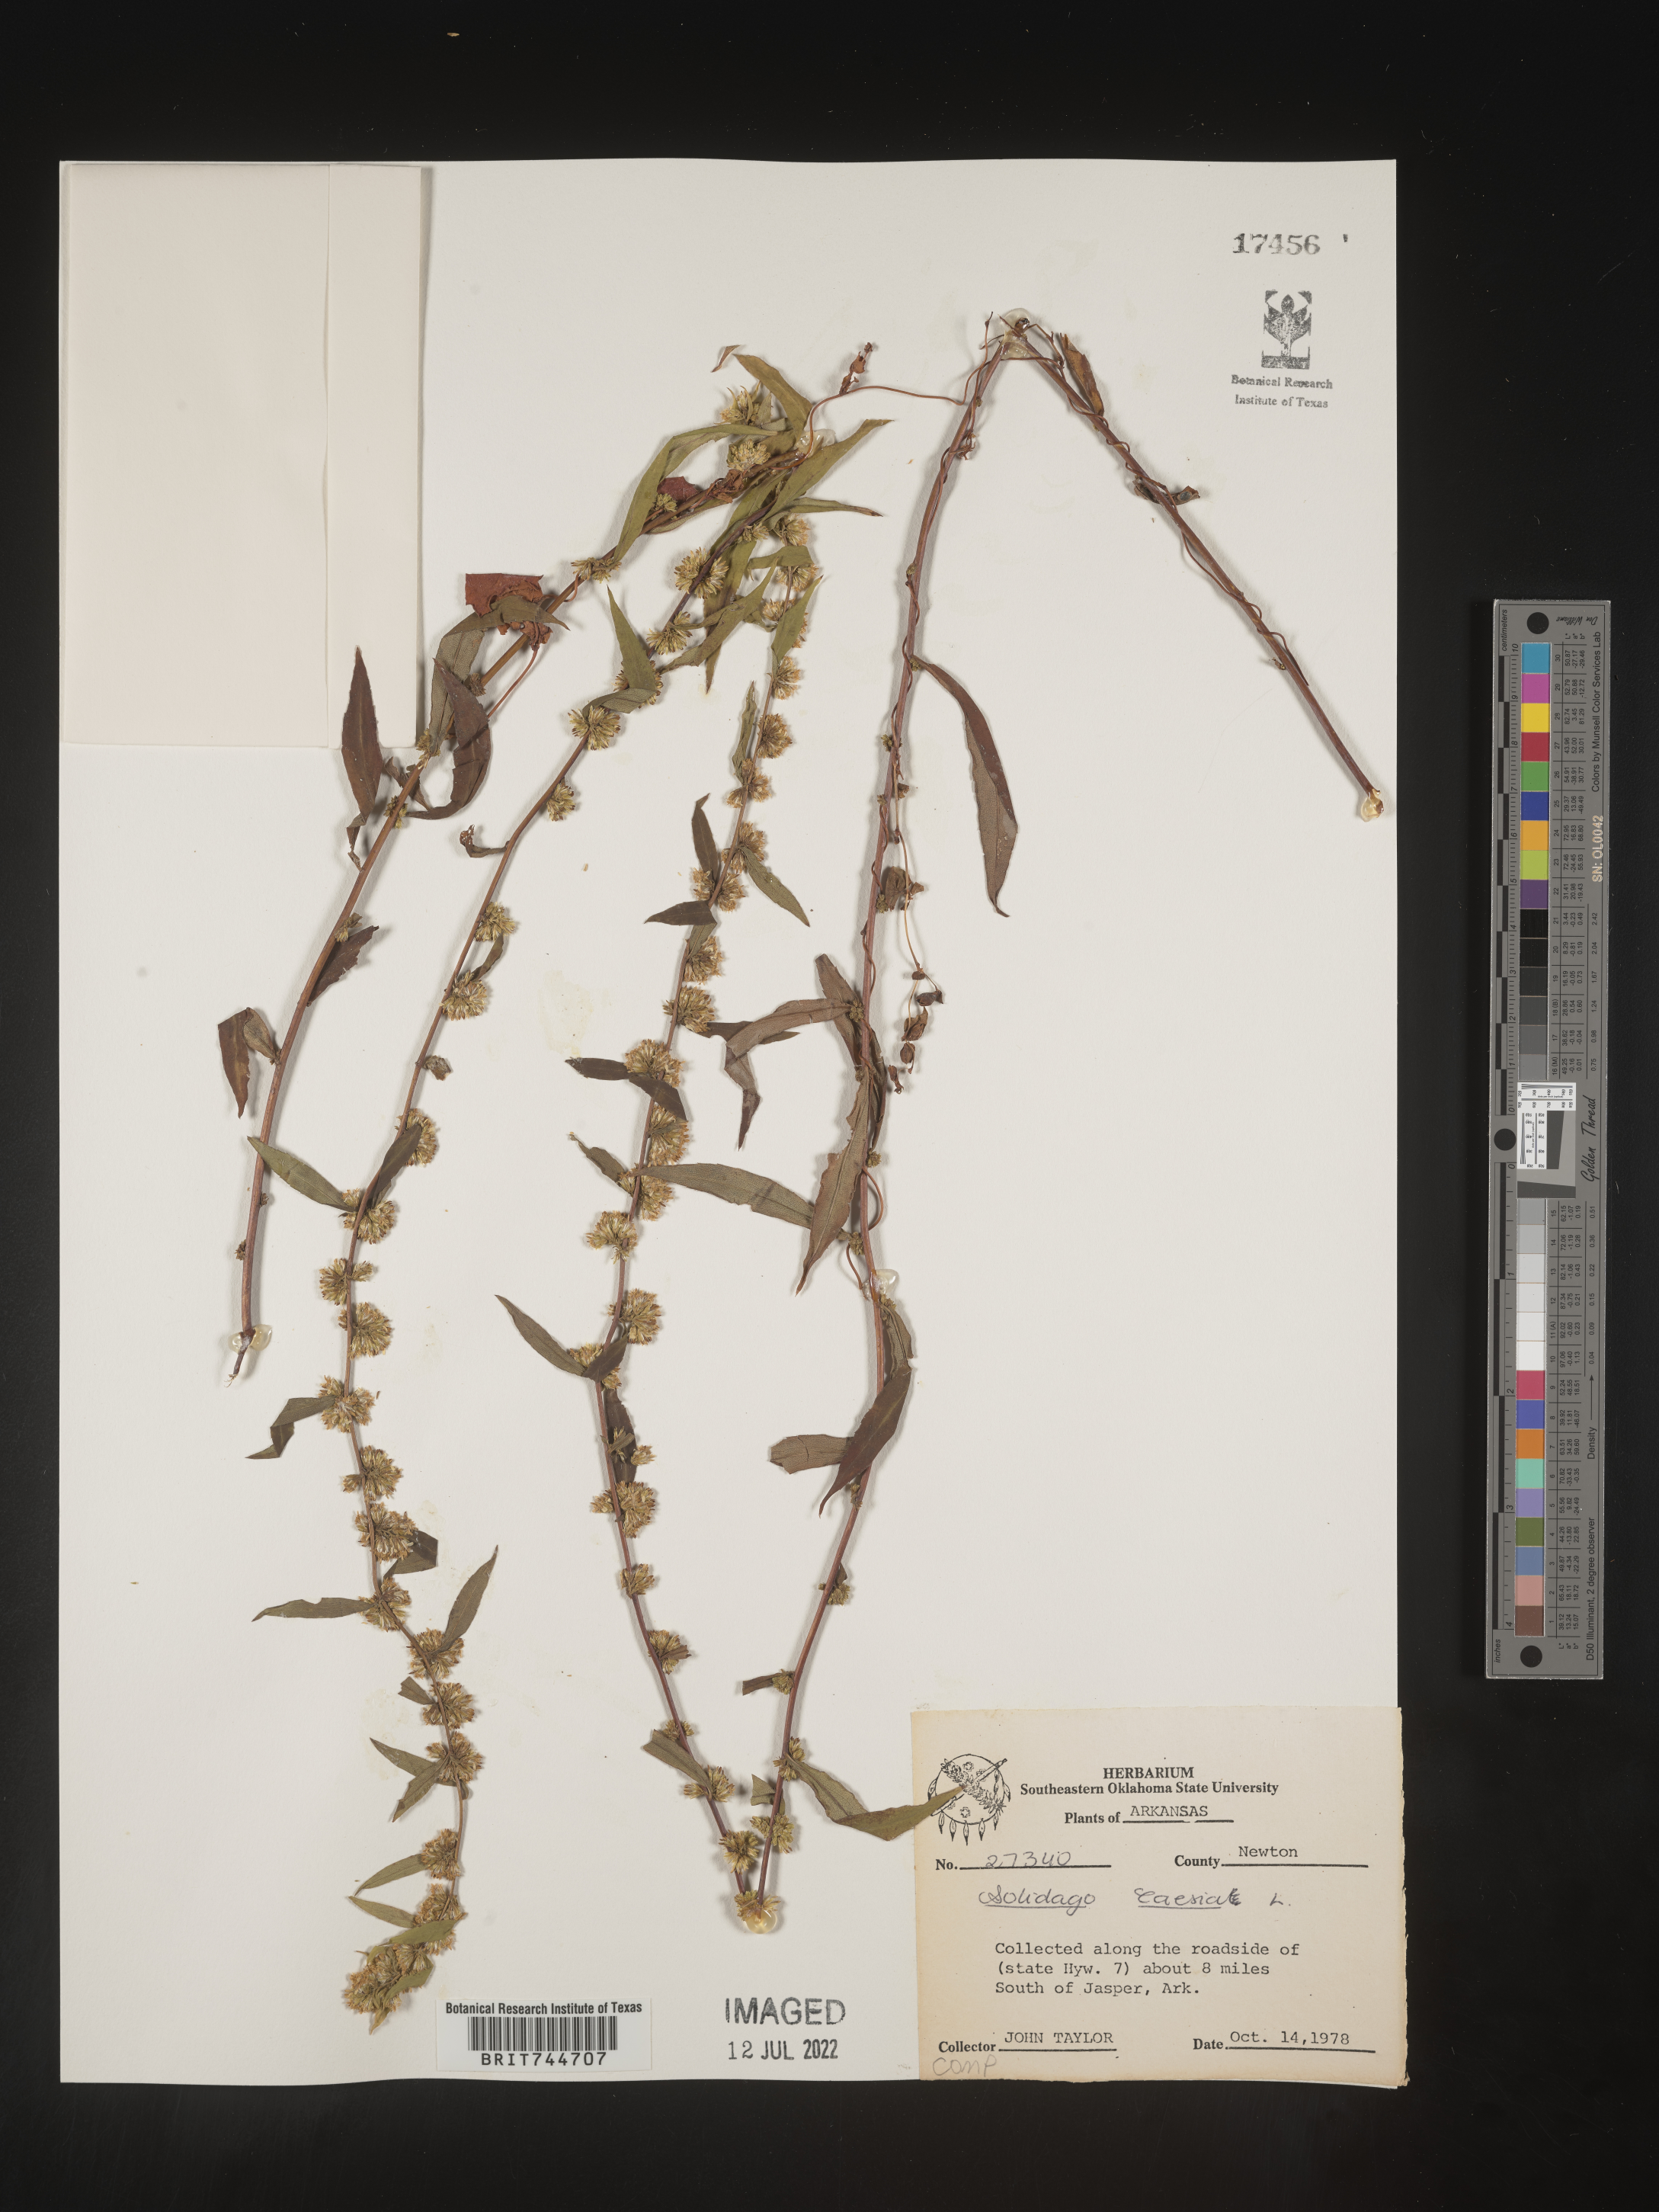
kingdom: Plantae
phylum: Tracheophyta
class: Magnoliopsida
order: Asterales
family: Asteraceae
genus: Solidago
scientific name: Solidago caesia
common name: Woodland goldenrod
